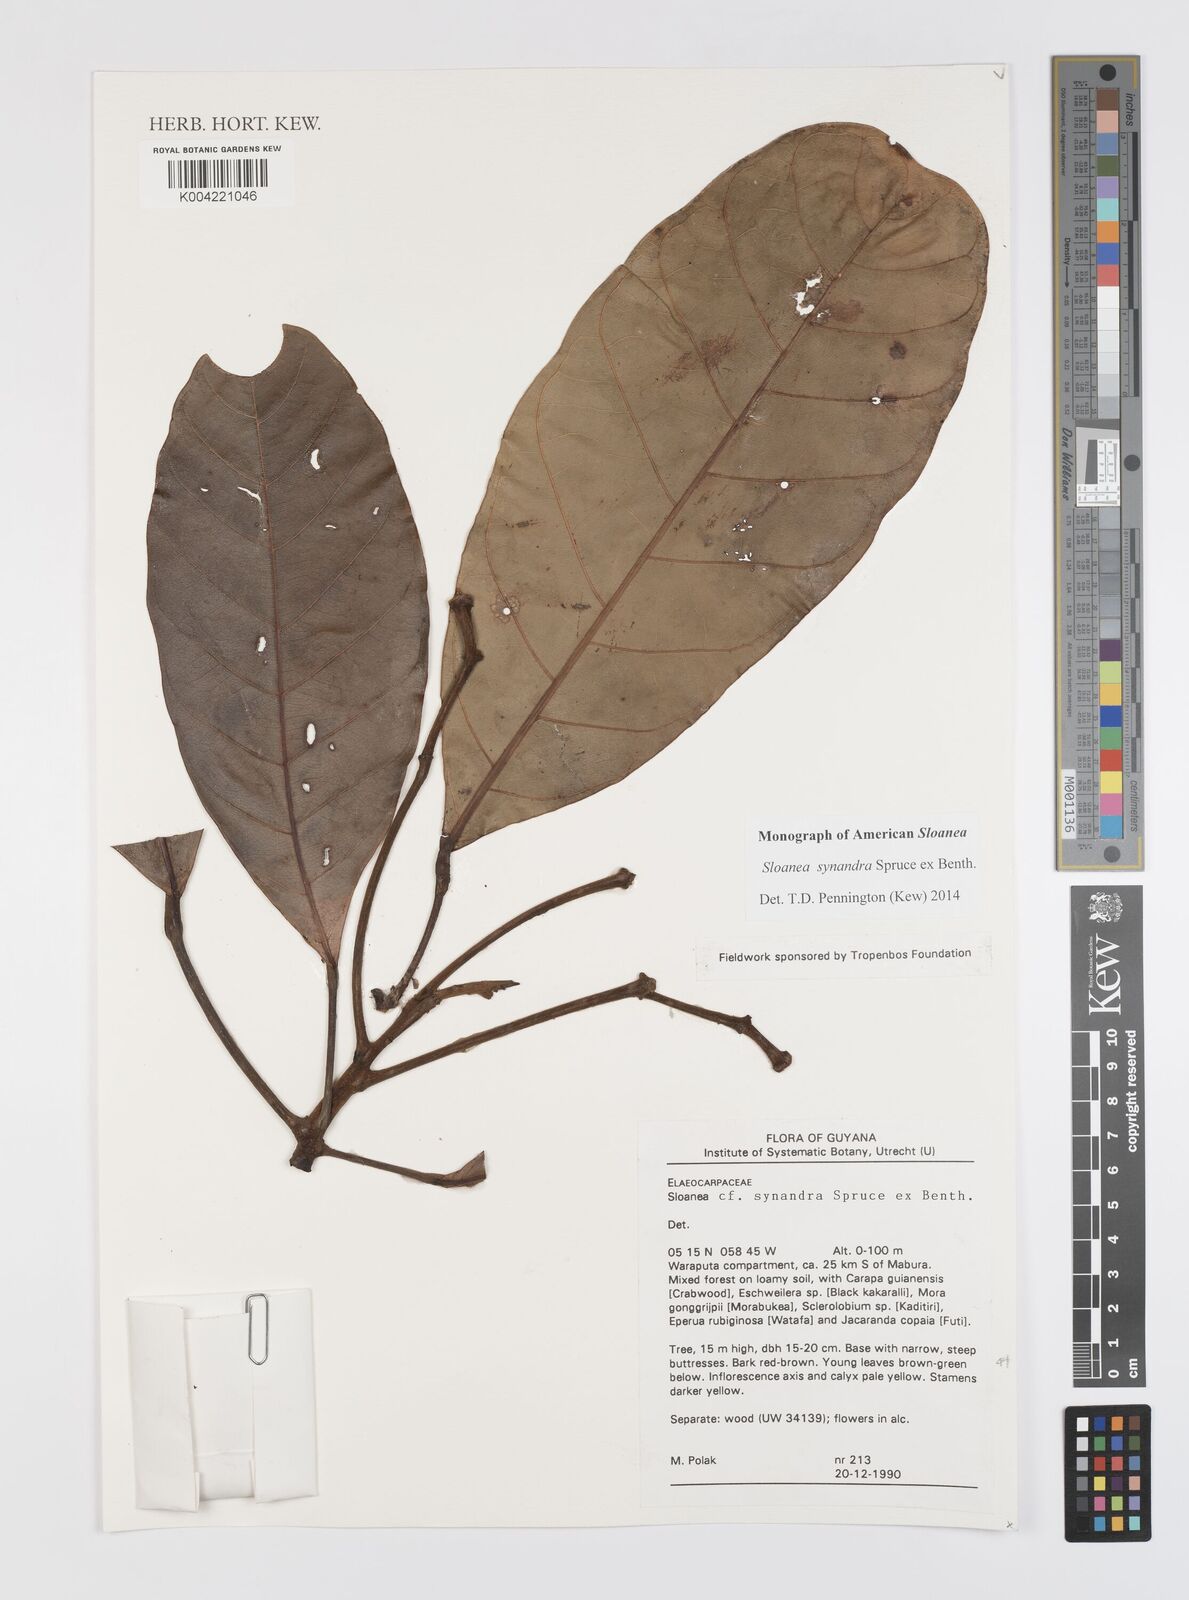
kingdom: Plantae
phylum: Tracheophyta
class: Magnoliopsida
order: Oxalidales
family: Elaeocarpaceae
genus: Sloanea
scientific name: Sloanea synandra
